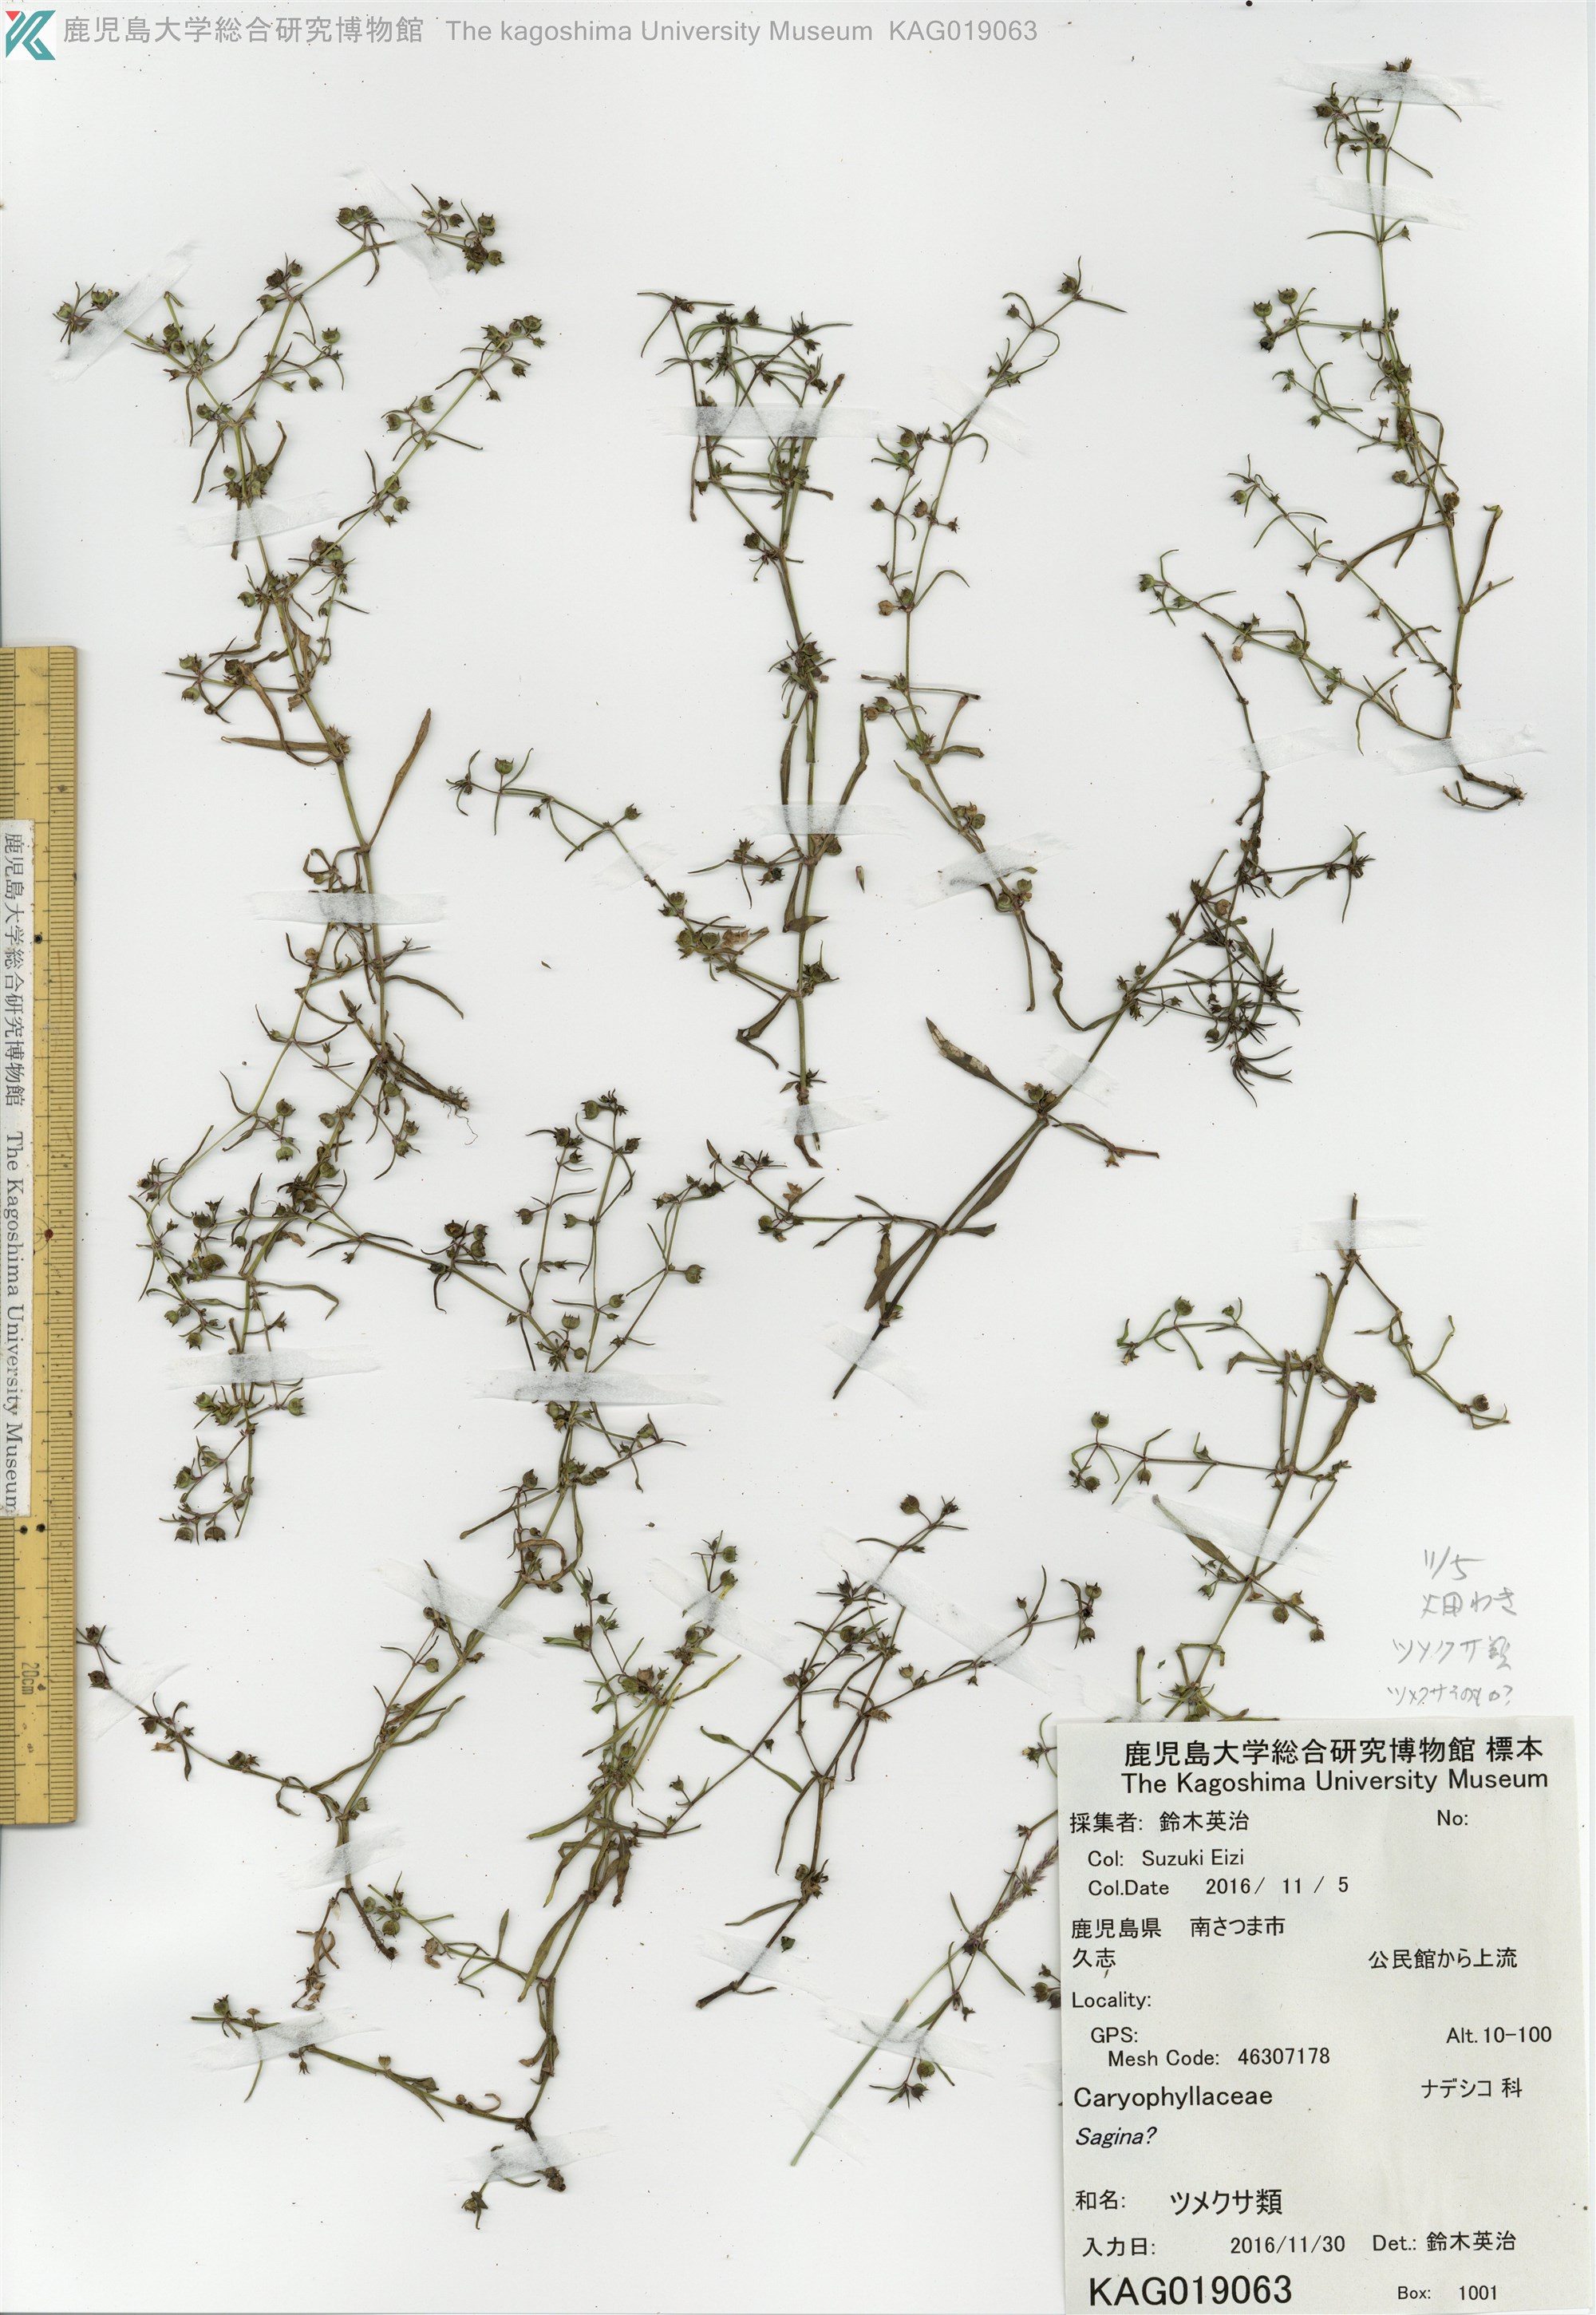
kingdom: Plantae
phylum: Tracheophyta
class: Magnoliopsida
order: Gentianales
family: Rubiaceae
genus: Scleromitrion
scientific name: Scleromitrion brachypodum
